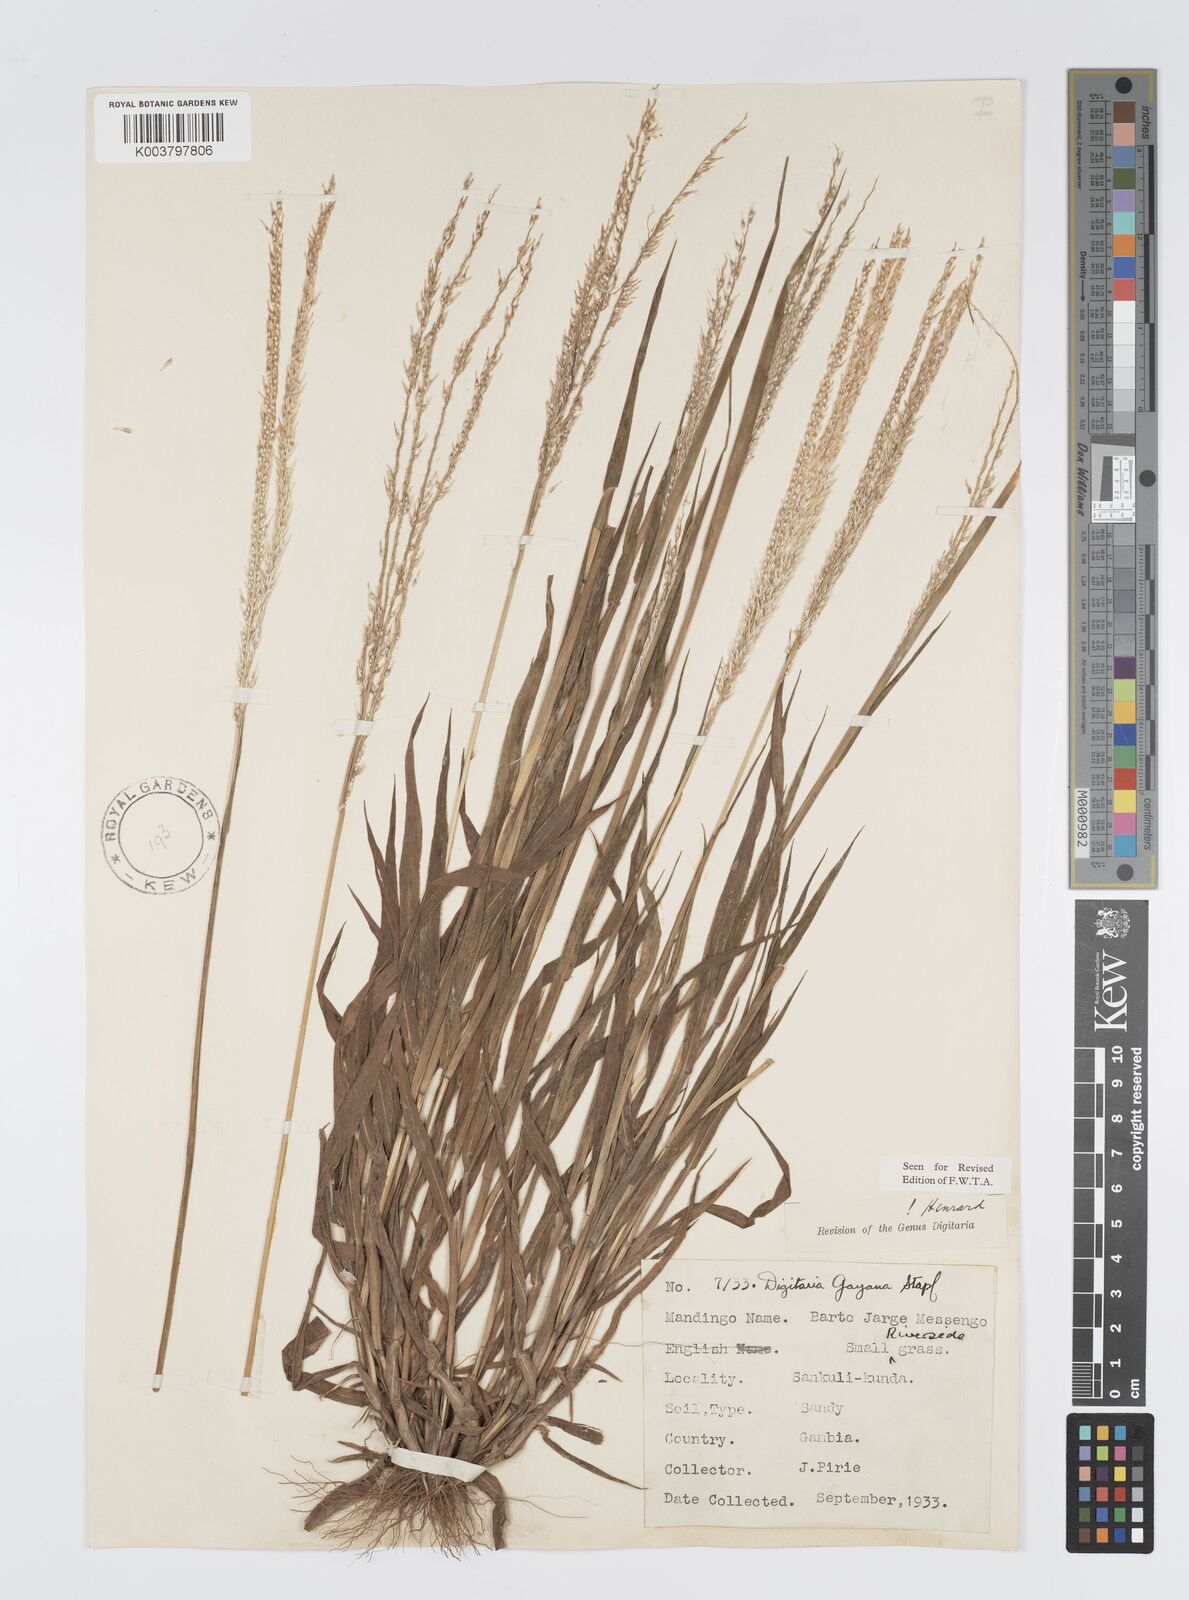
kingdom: Plantae
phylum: Tracheophyta
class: Liliopsida
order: Poales
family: Poaceae
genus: Digitaria
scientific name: Digitaria gayana
